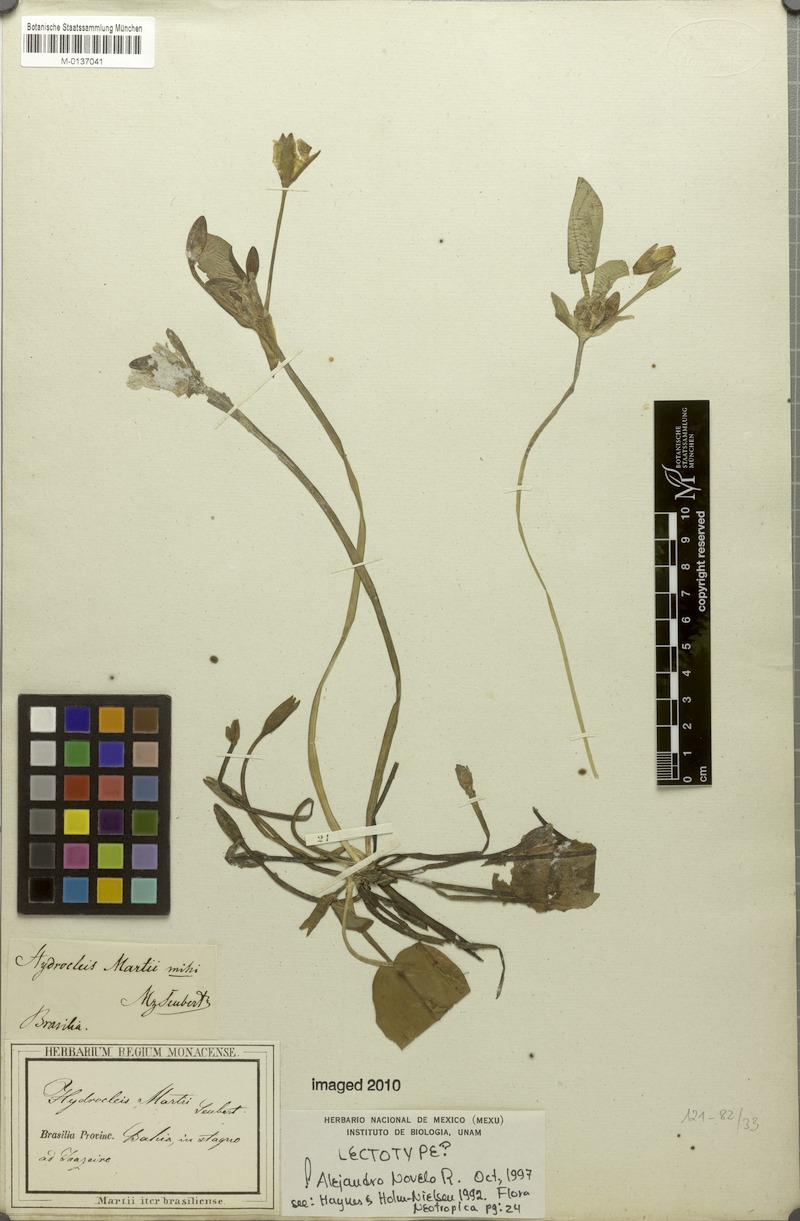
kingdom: Plantae
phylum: Tracheophyta
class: Liliopsida
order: Alismatales
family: Alismataceae
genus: Hydrocleys
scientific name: Hydrocleys martii
